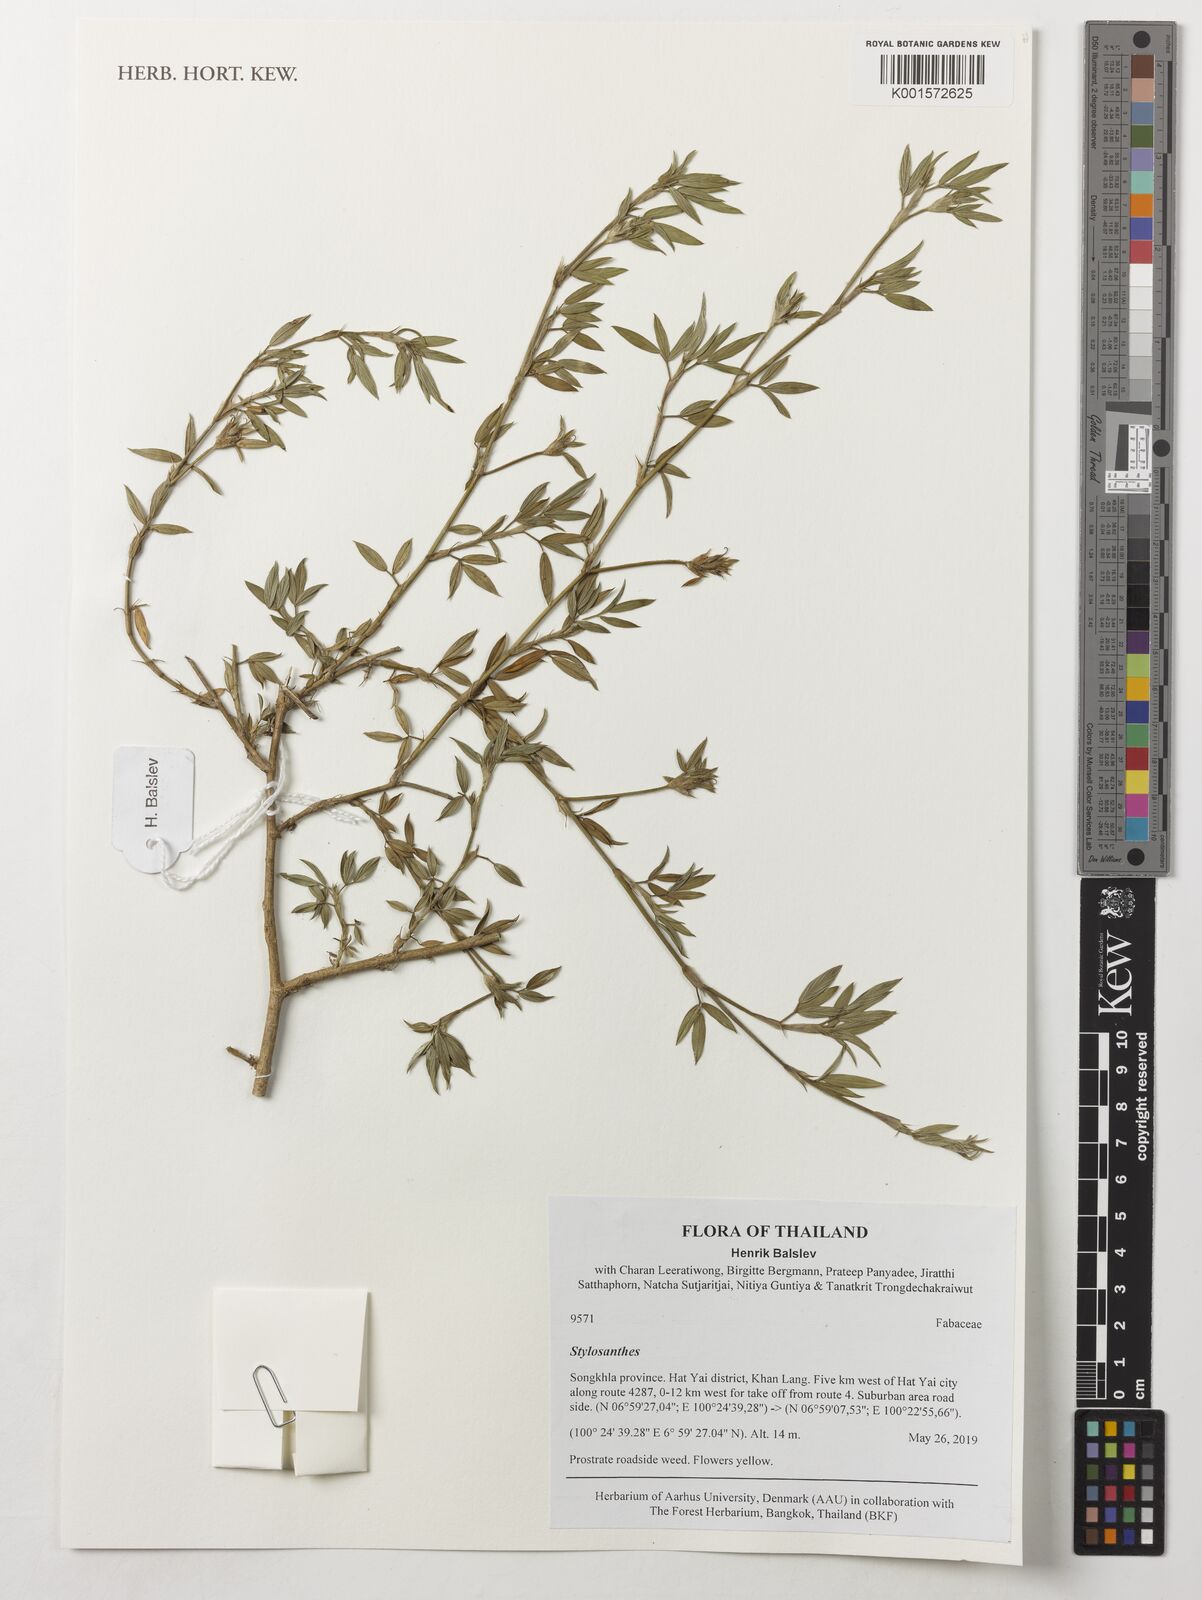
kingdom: Plantae
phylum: Tracheophyta
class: Magnoliopsida
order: Fabales
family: Fabaceae
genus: Stylosanthes
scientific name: Stylosanthes
